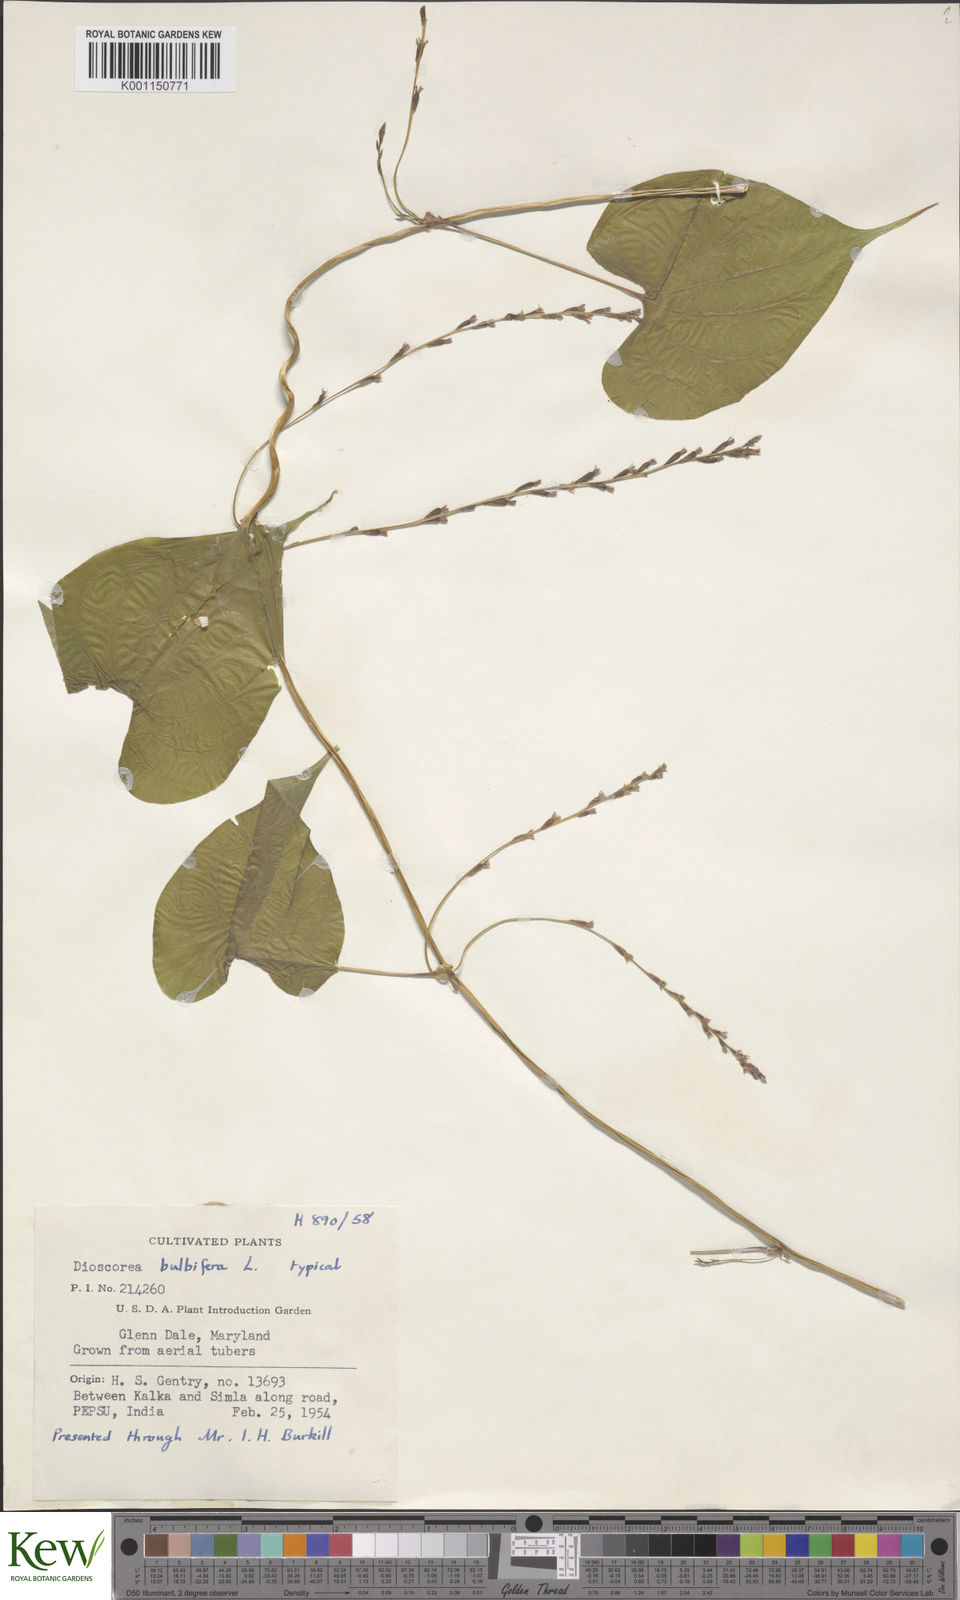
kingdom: Plantae
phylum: Tracheophyta
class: Liliopsida
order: Dioscoreales
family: Dioscoreaceae
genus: Dioscorea
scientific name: Dioscorea bulbifera
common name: Air yam
